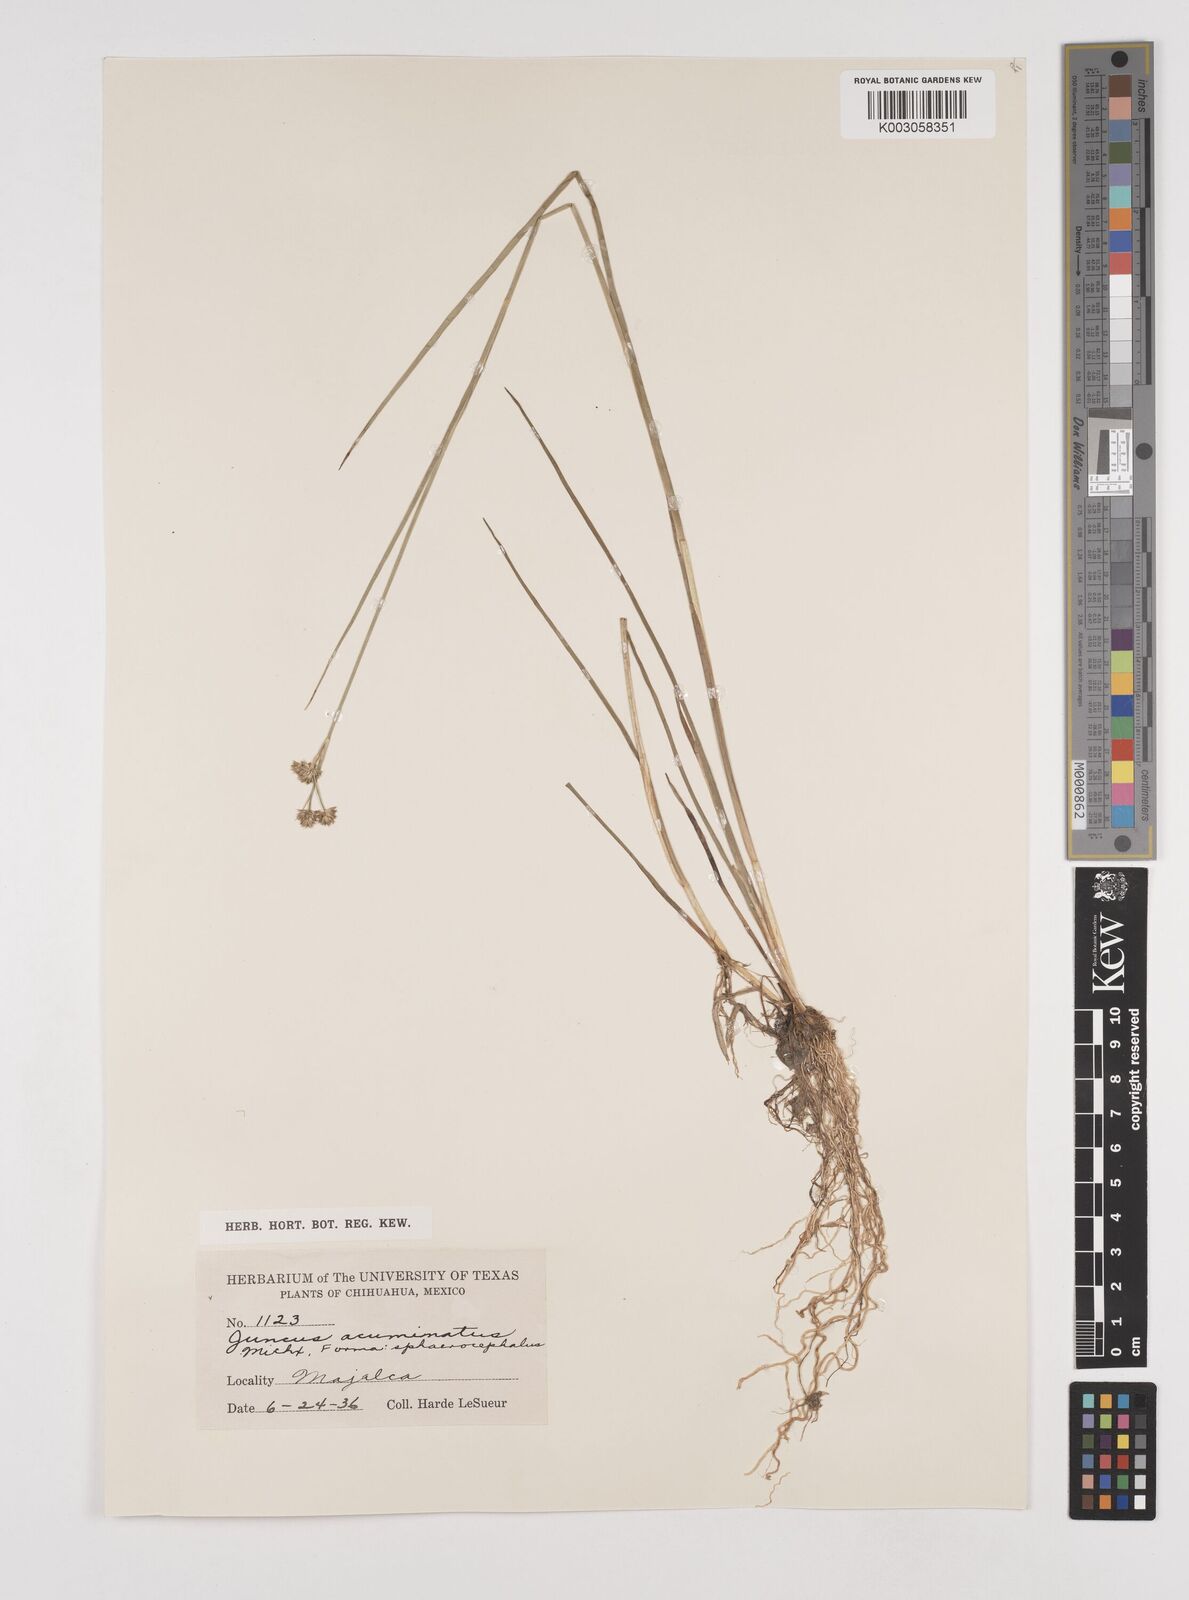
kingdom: Plantae
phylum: Tracheophyta
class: Liliopsida
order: Poales
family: Juncaceae
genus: Juncus
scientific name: Juncus acuminatus
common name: Knotty-leaved rush
